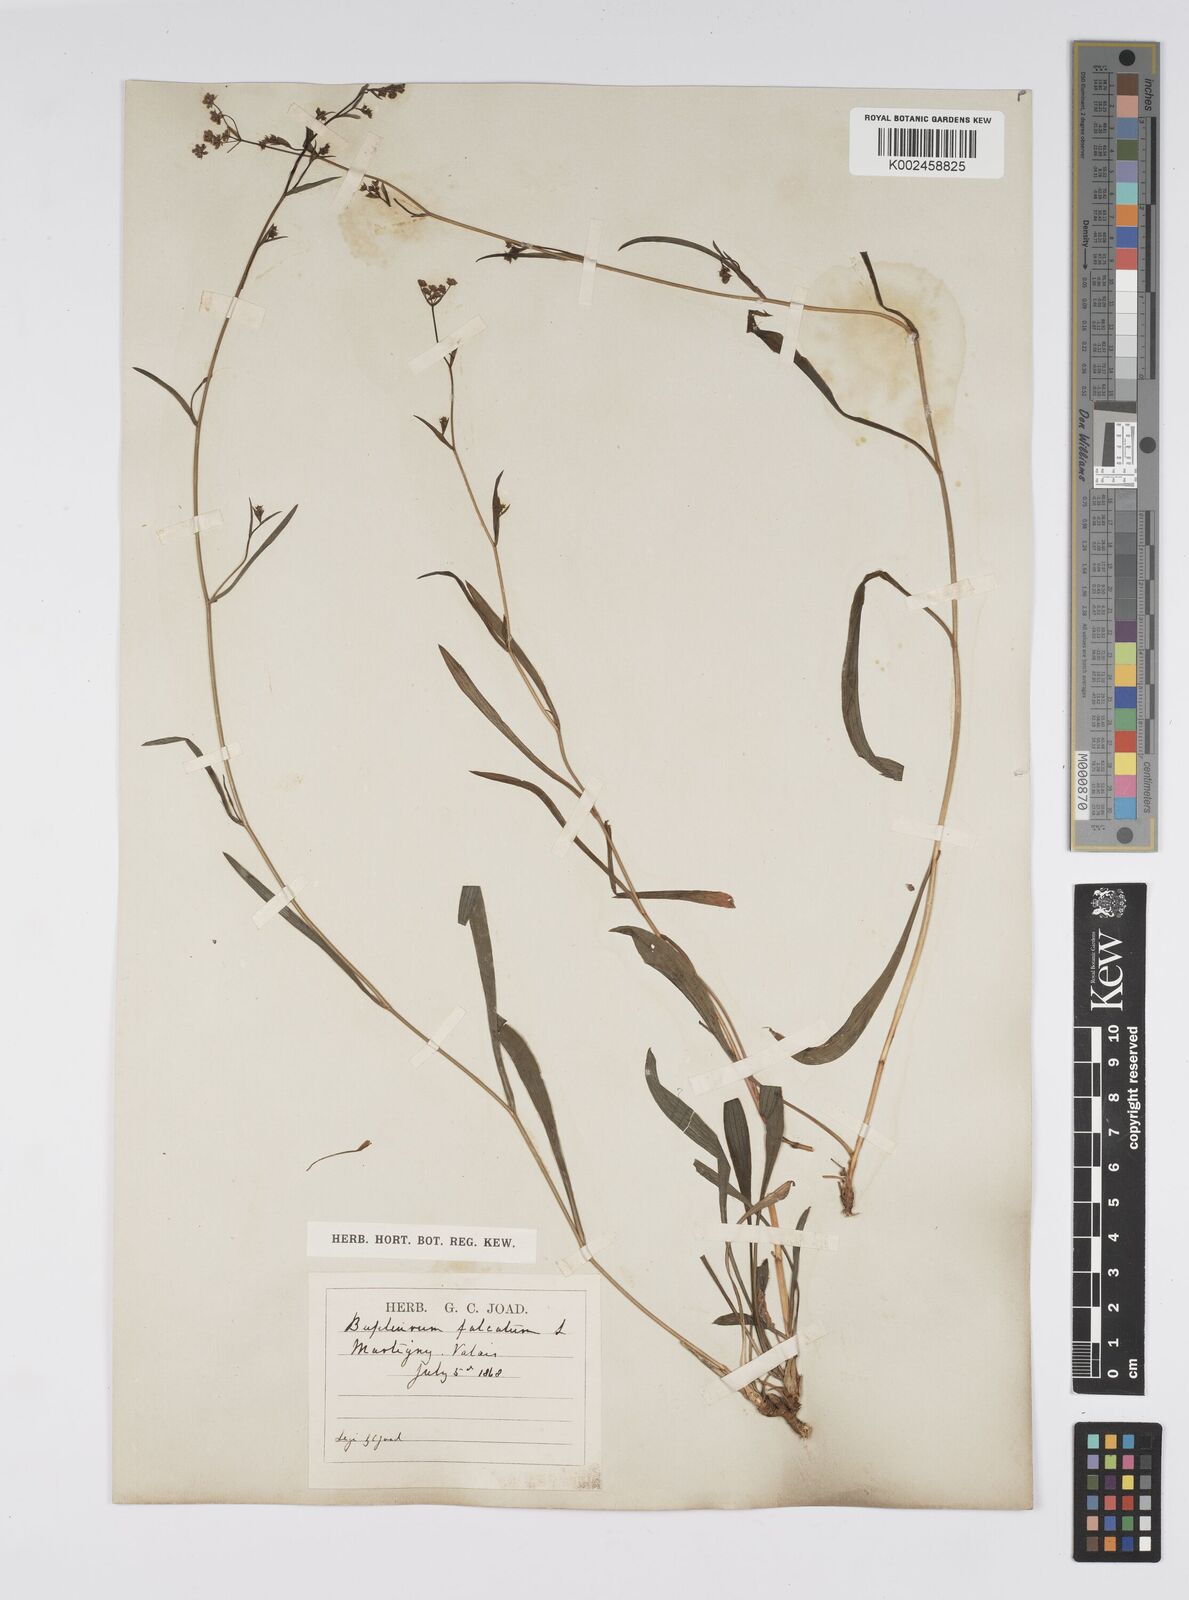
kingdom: Plantae
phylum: Tracheophyta
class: Magnoliopsida
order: Apiales
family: Apiaceae
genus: Bupleurum
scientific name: Bupleurum falcatum
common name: Sickle-leaved hare's-ear
